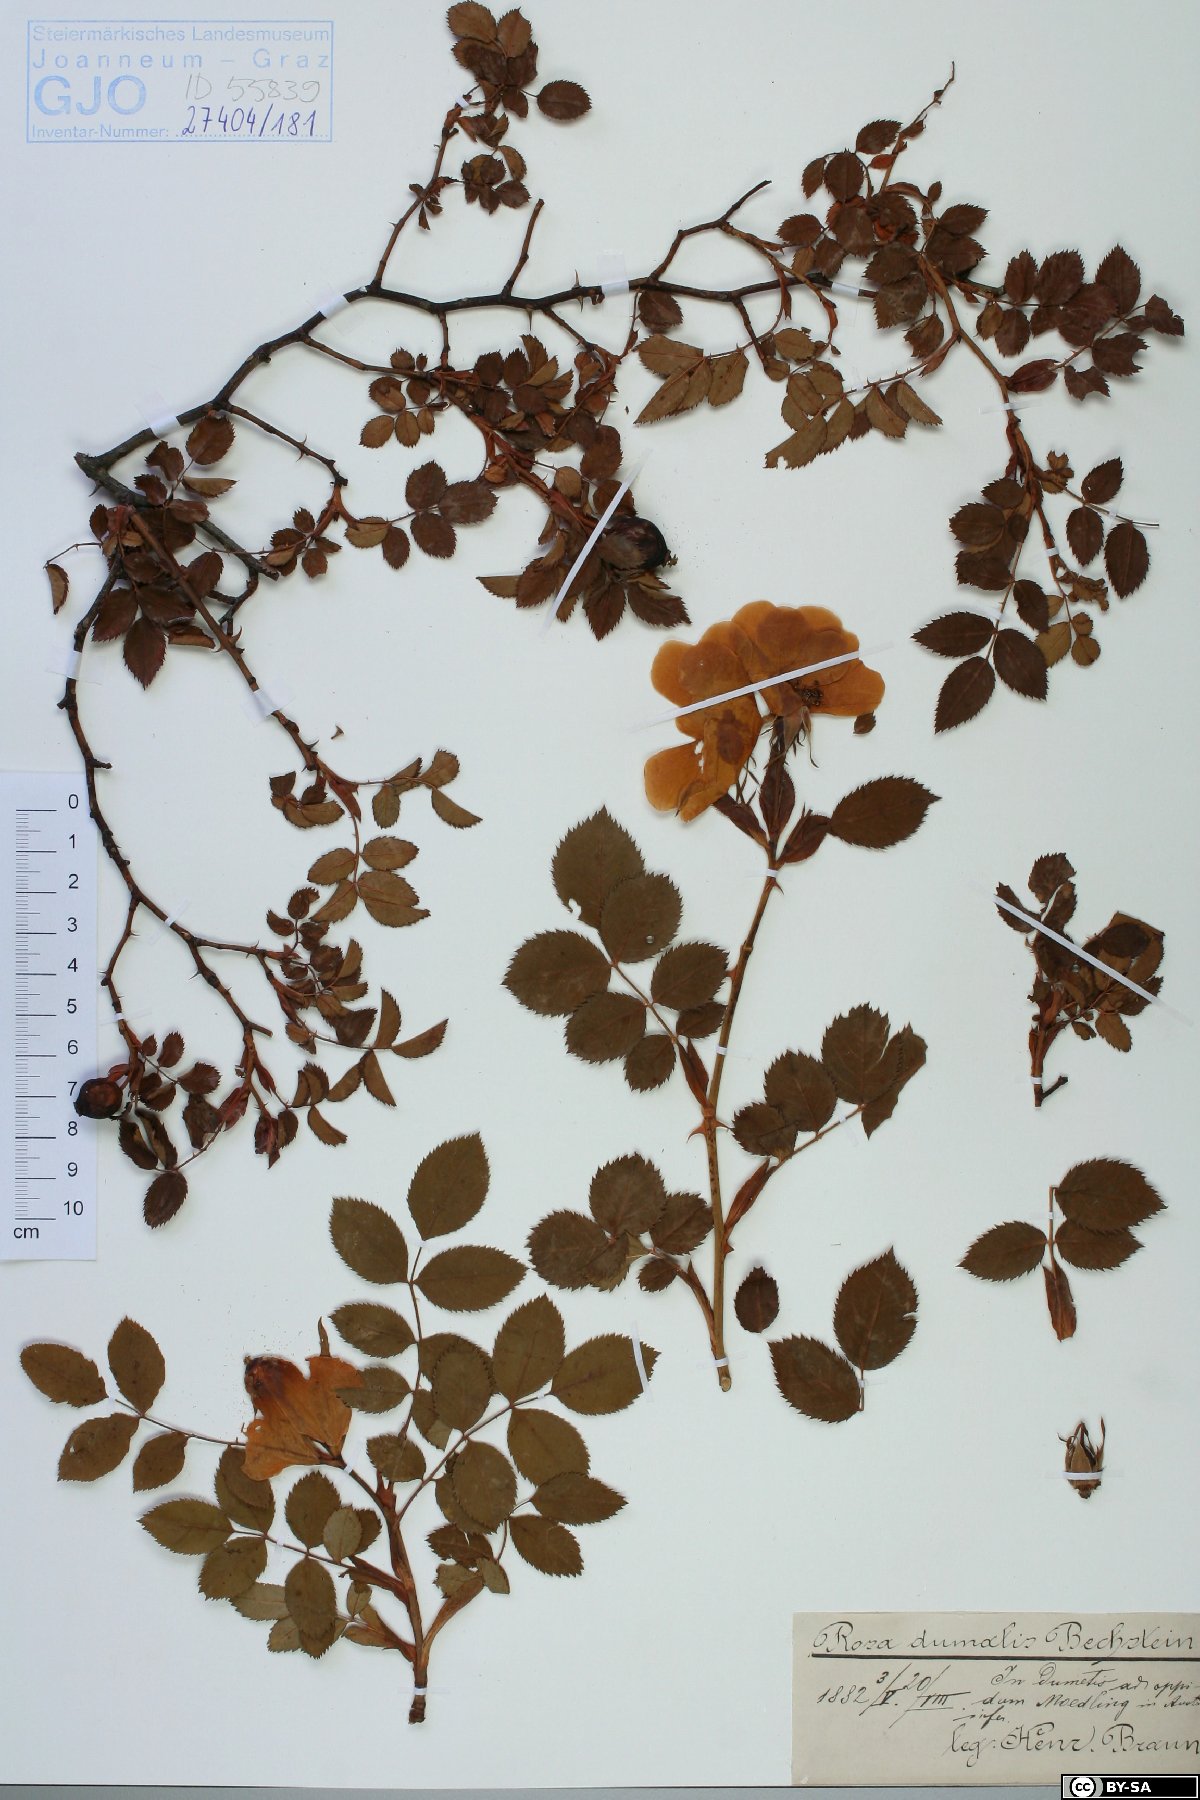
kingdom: Plantae
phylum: Tracheophyta
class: Magnoliopsida
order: Rosales
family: Rosaceae
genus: Rosa
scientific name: Rosa dumalis
